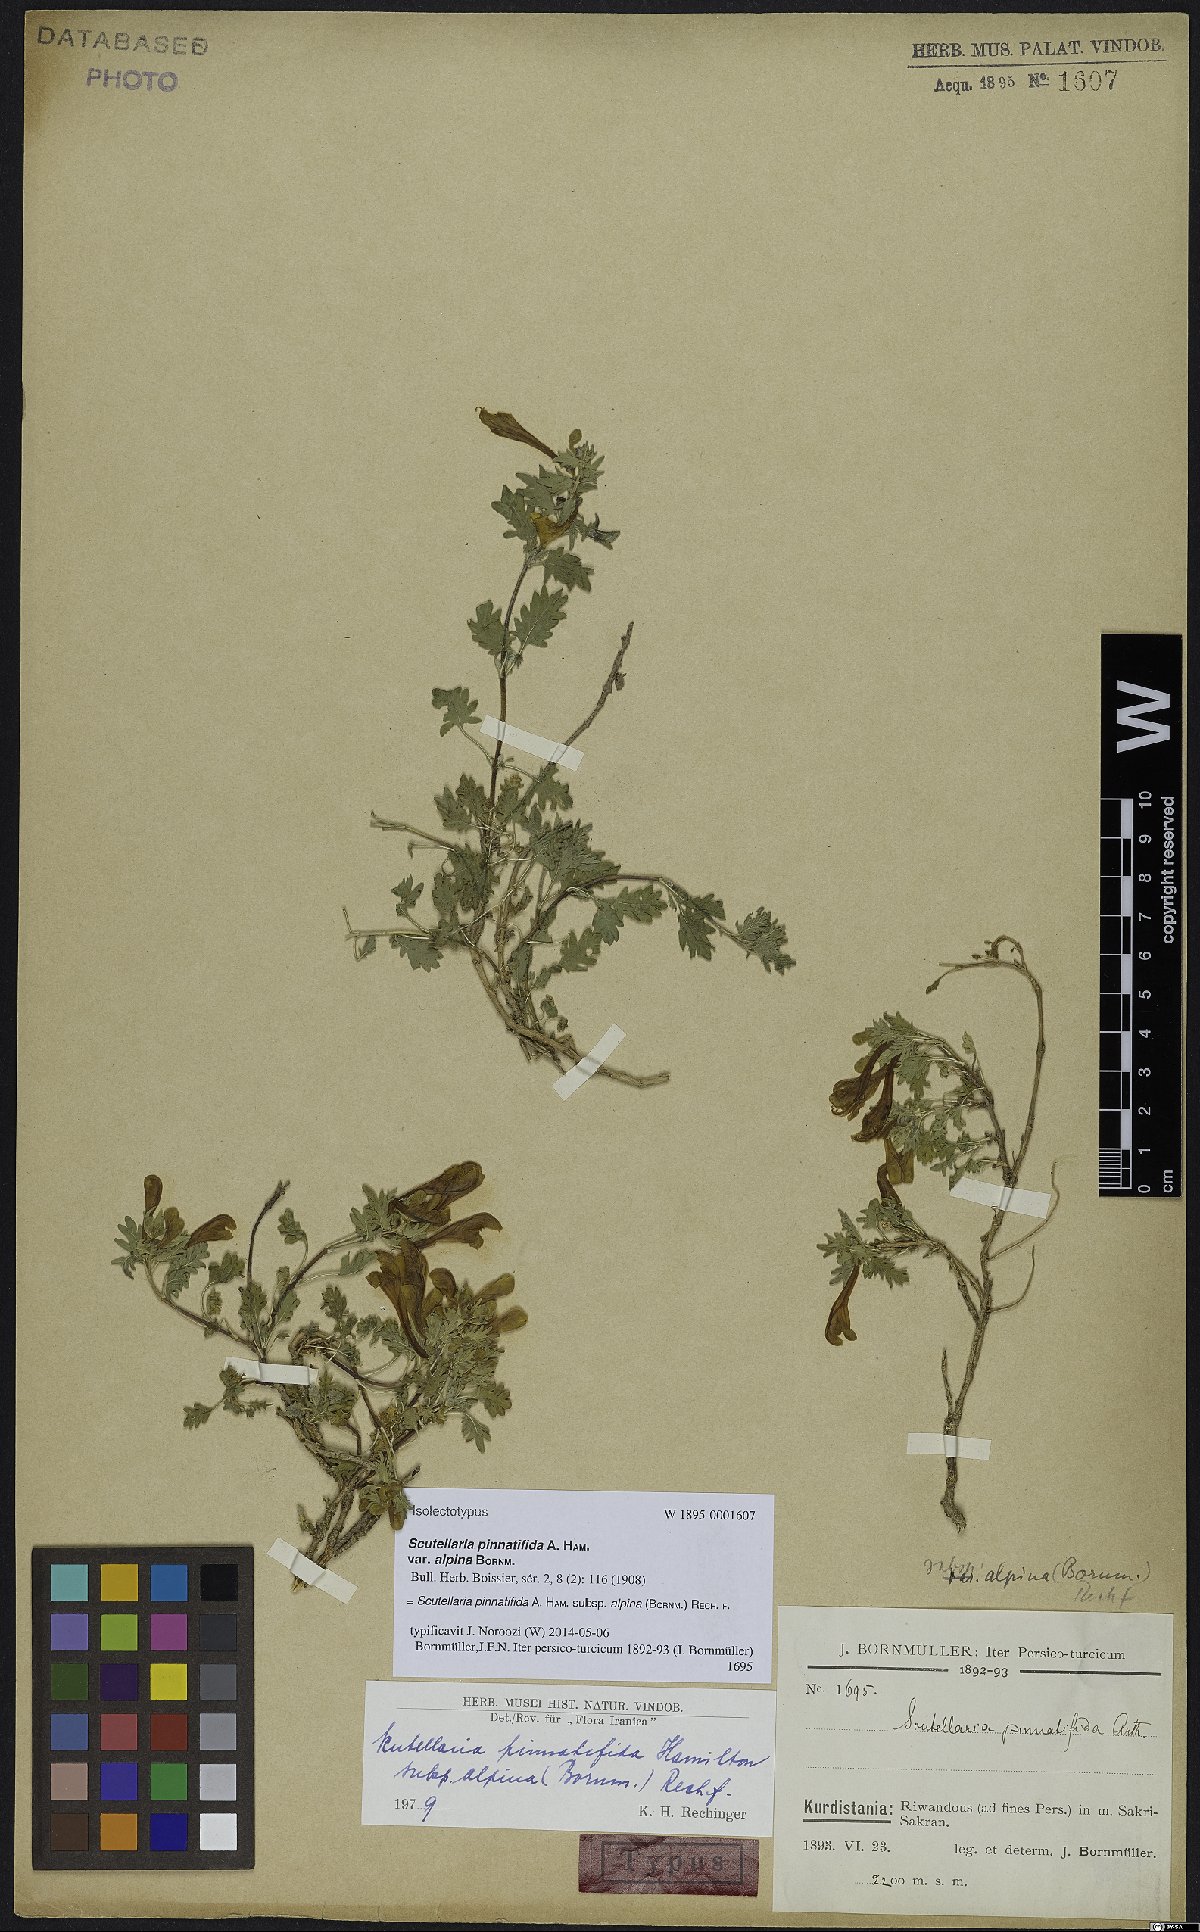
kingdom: Plantae
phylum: Tracheophyta
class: Magnoliopsida
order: Lamiales
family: Lamiaceae
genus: Scutellaria
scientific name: Scutellaria pinnatifida
